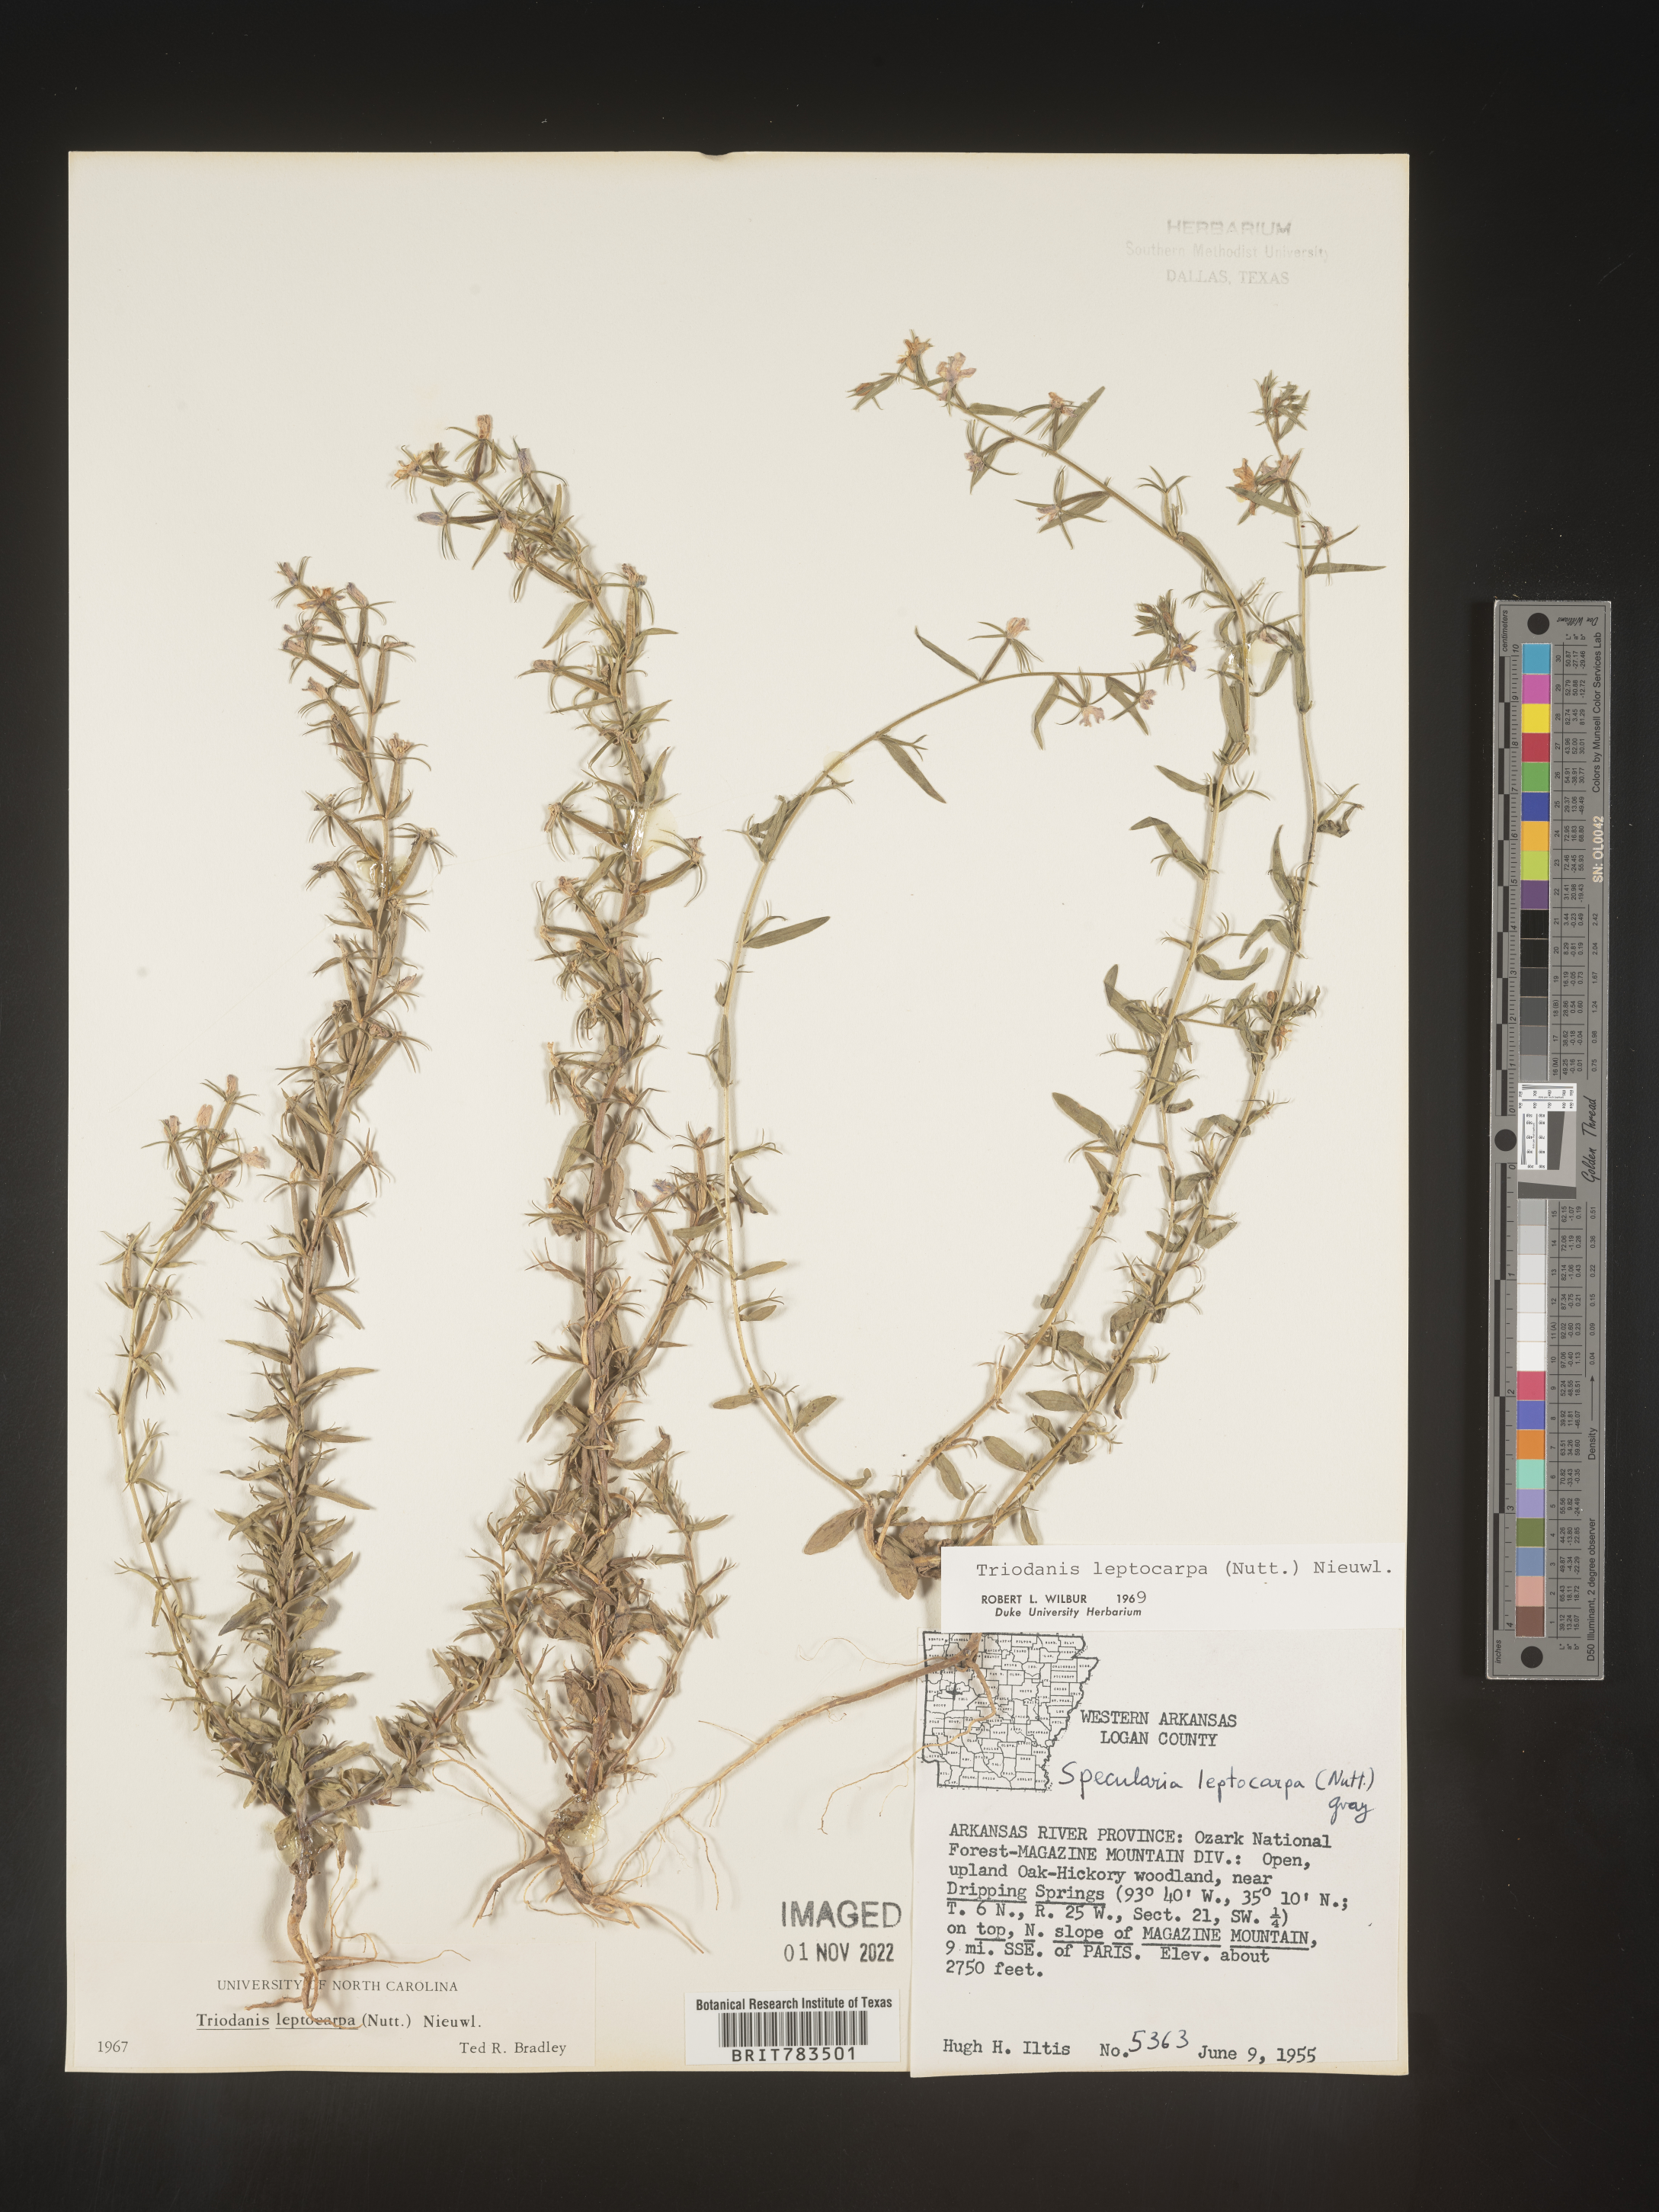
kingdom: Plantae
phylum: Tracheophyta
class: Magnoliopsida
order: Asterales
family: Campanulaceae
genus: Triodanis
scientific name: Triodanis leptocarpa
